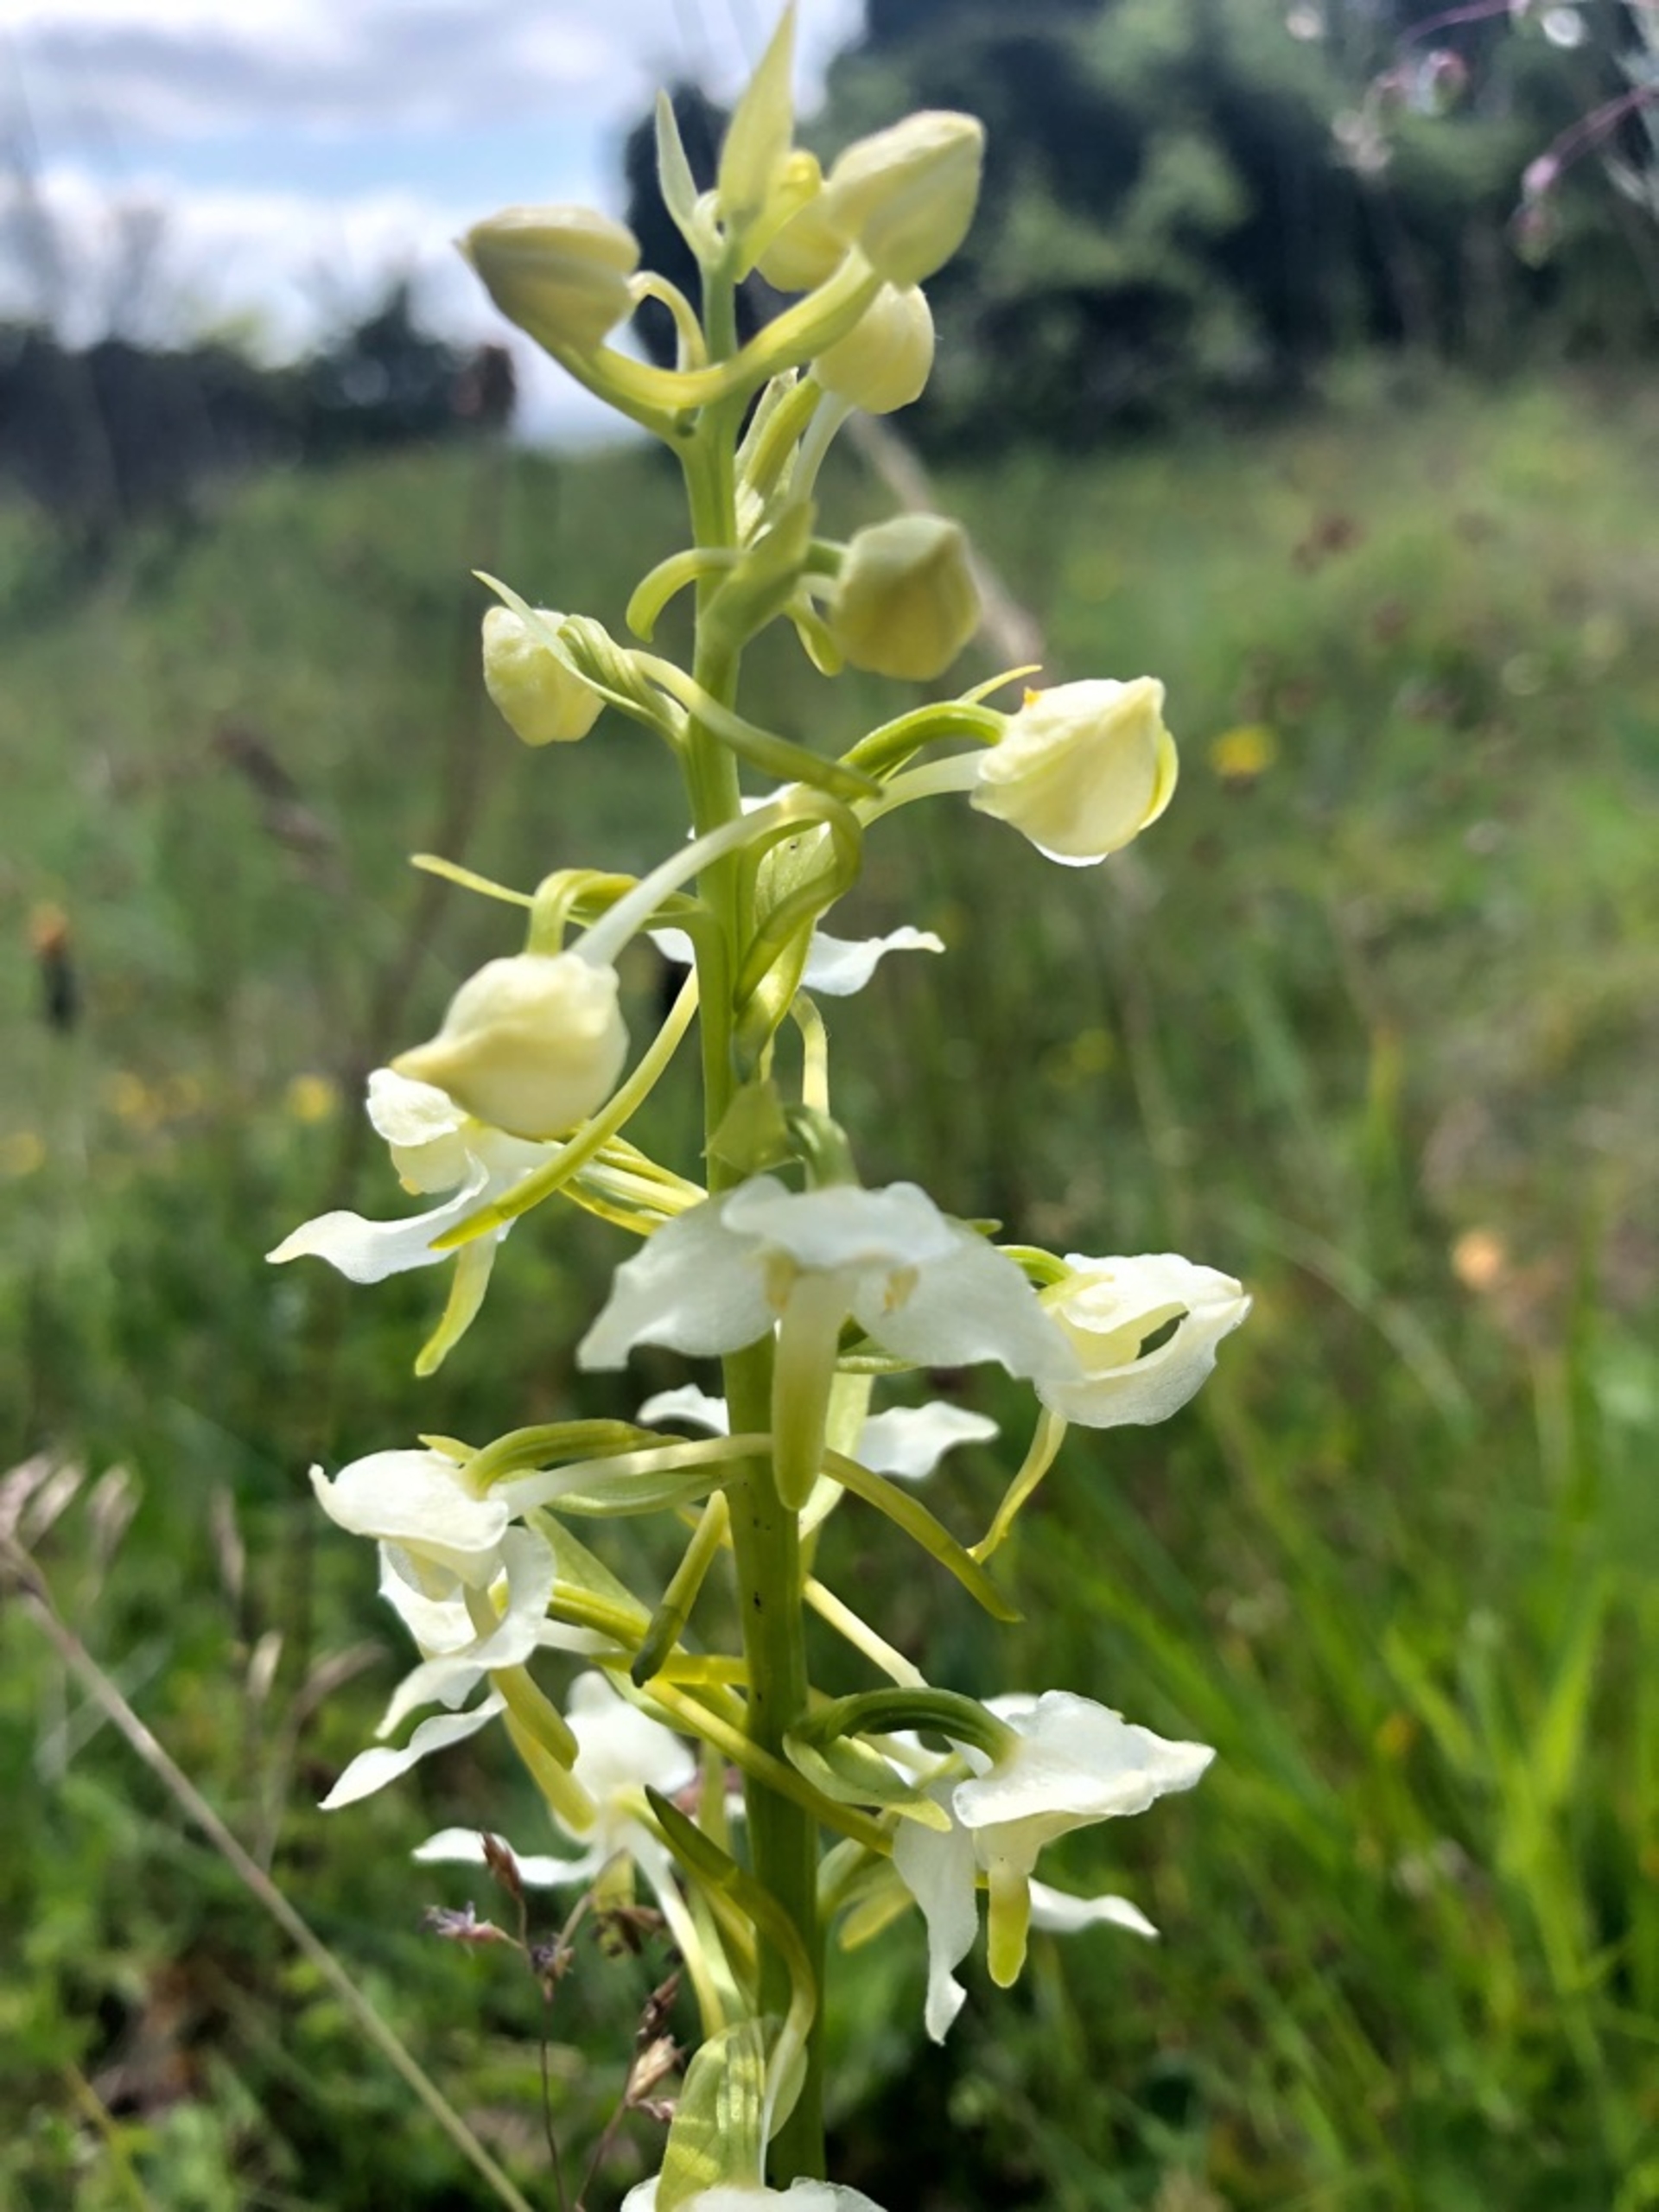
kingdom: Plantae
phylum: Tracheophyta
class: Liliopsida
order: Asparagales
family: Orchidaceae
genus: Platanthera
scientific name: Platanthera chlorantha
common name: Skov-gøgelilje
